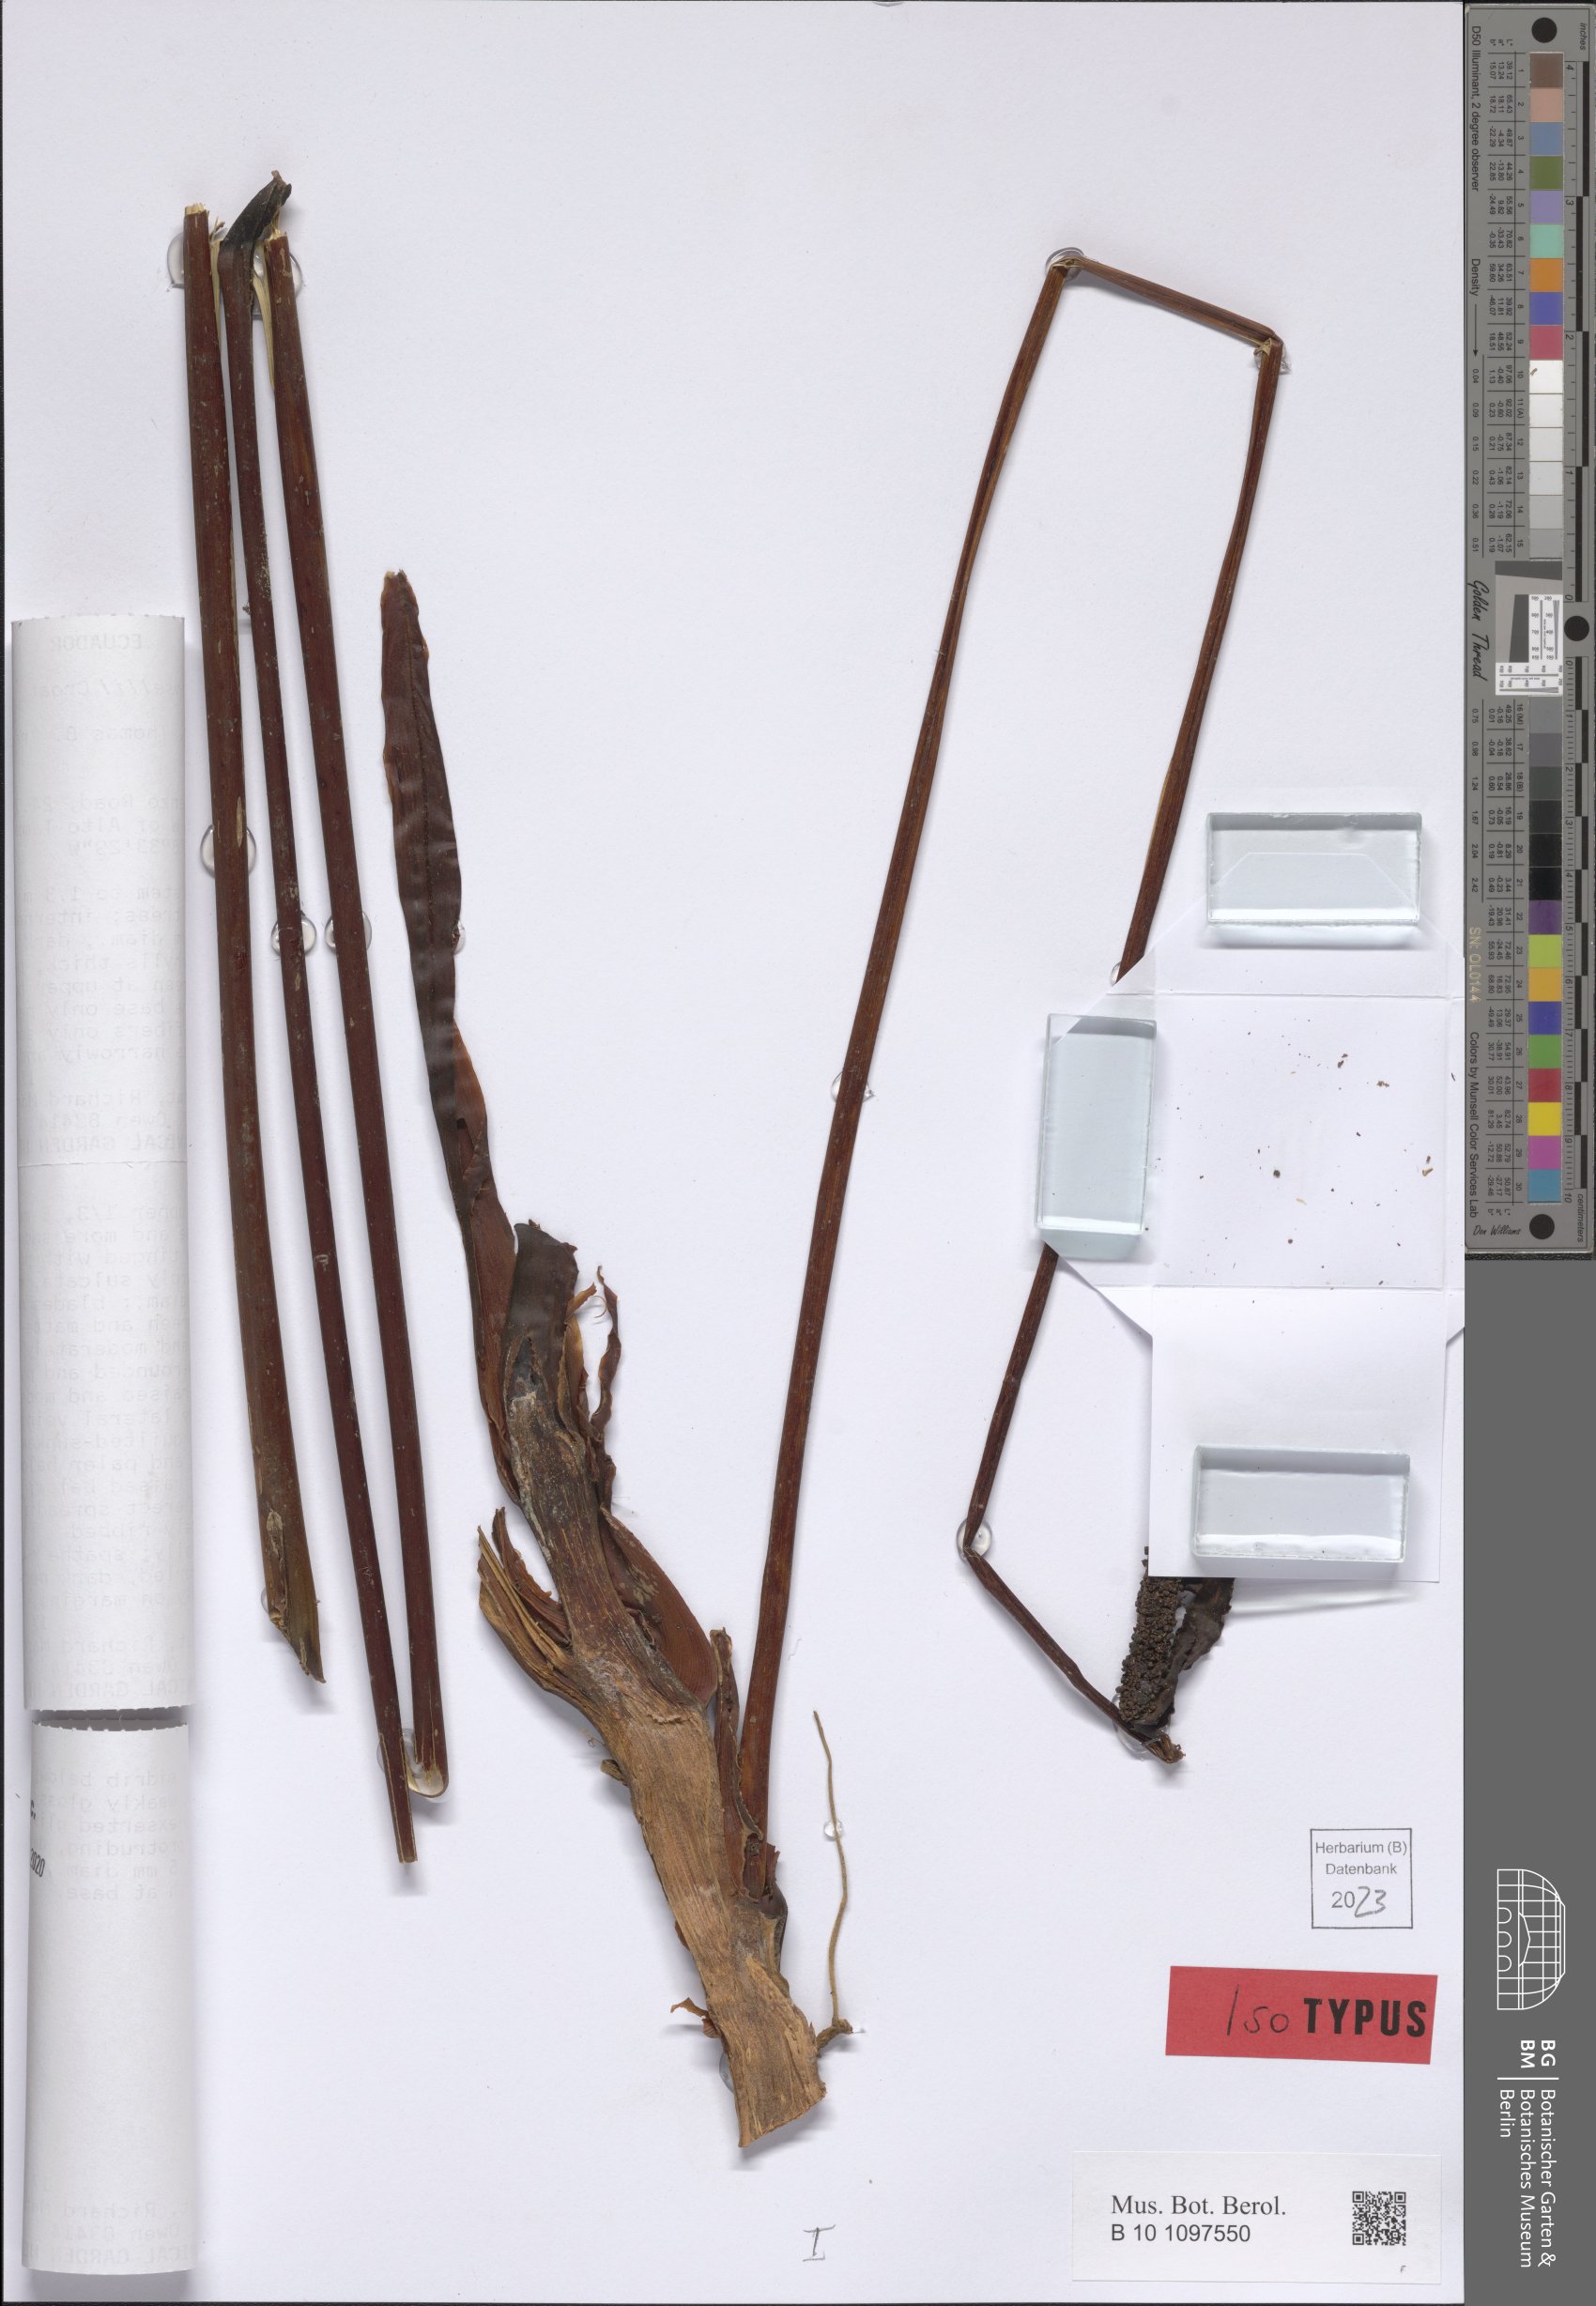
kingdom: Plantae
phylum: Tracheophyta
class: Liliopsida
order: Alismatales
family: Araceae
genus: Anthurium
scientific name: Anthurium mansellii
